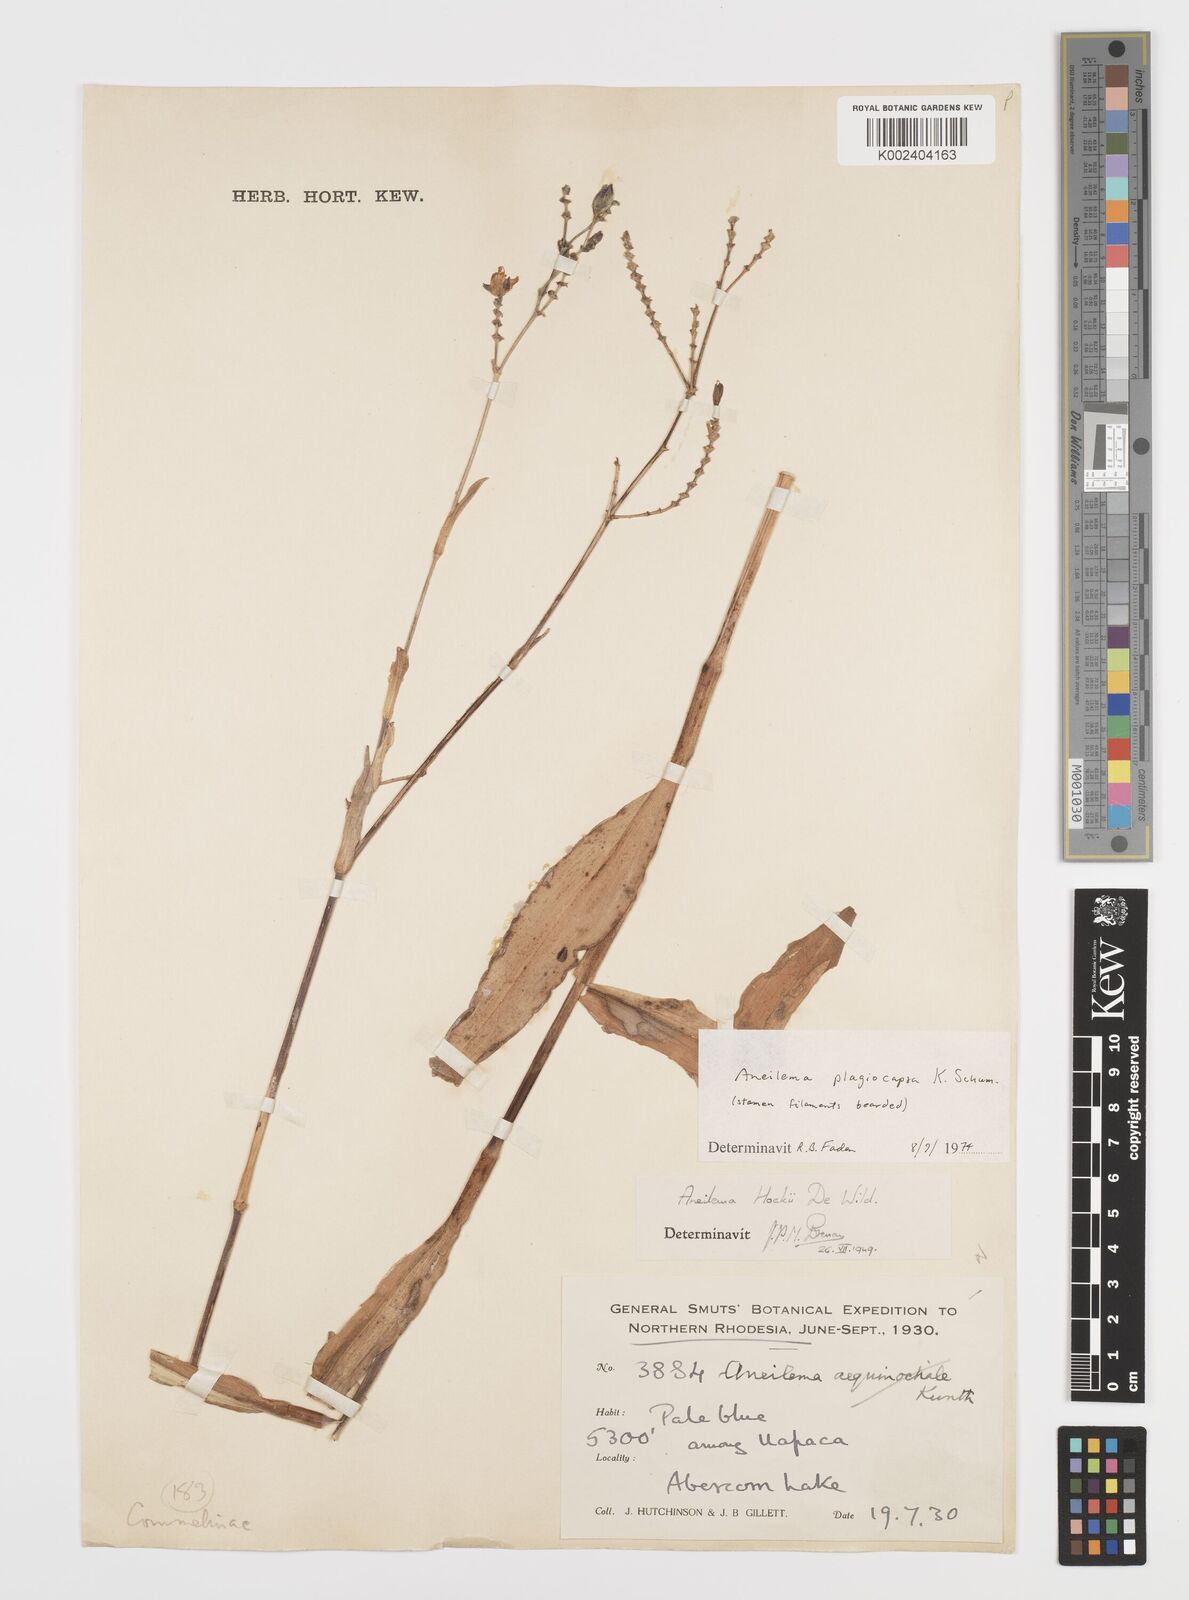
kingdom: Plantae
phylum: Tracheophyta
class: Liliopsida
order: Commelinales
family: Commelinaceae
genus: Aneilema
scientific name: Aneilema plagiocapsa
